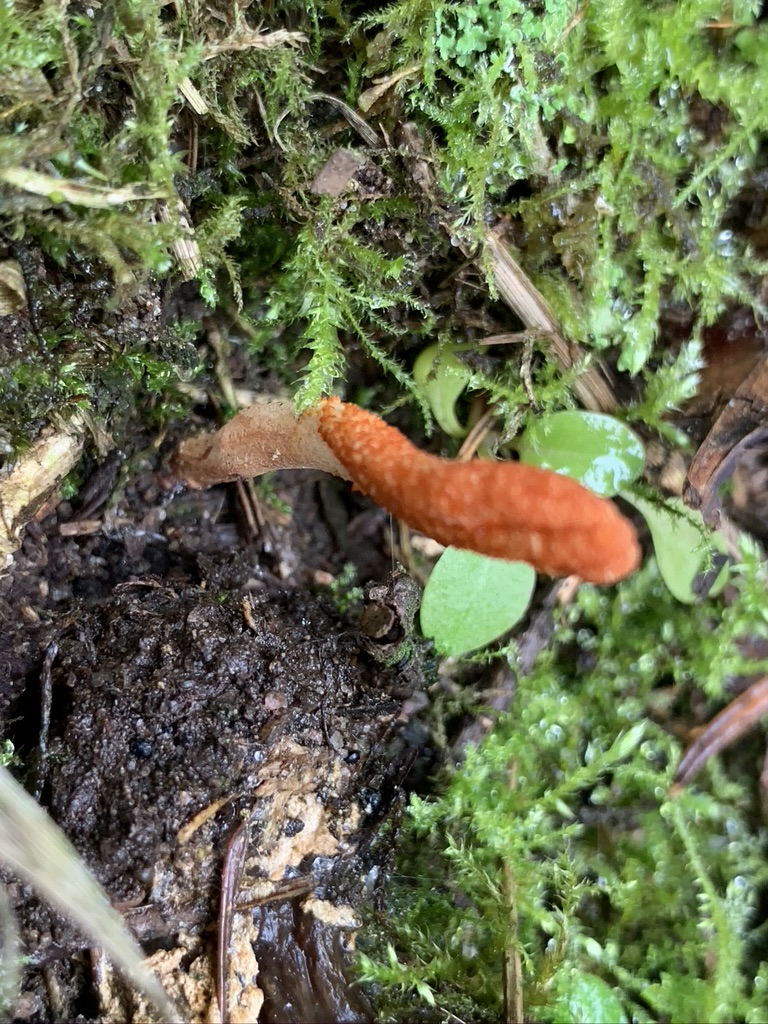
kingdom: Fungi
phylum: Ascomycota
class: Sordariomycetes
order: Hypocreales
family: Cordycipitaceae
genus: Cordyceps
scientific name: Cordyceps militaris
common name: puppe-snyltekølle
